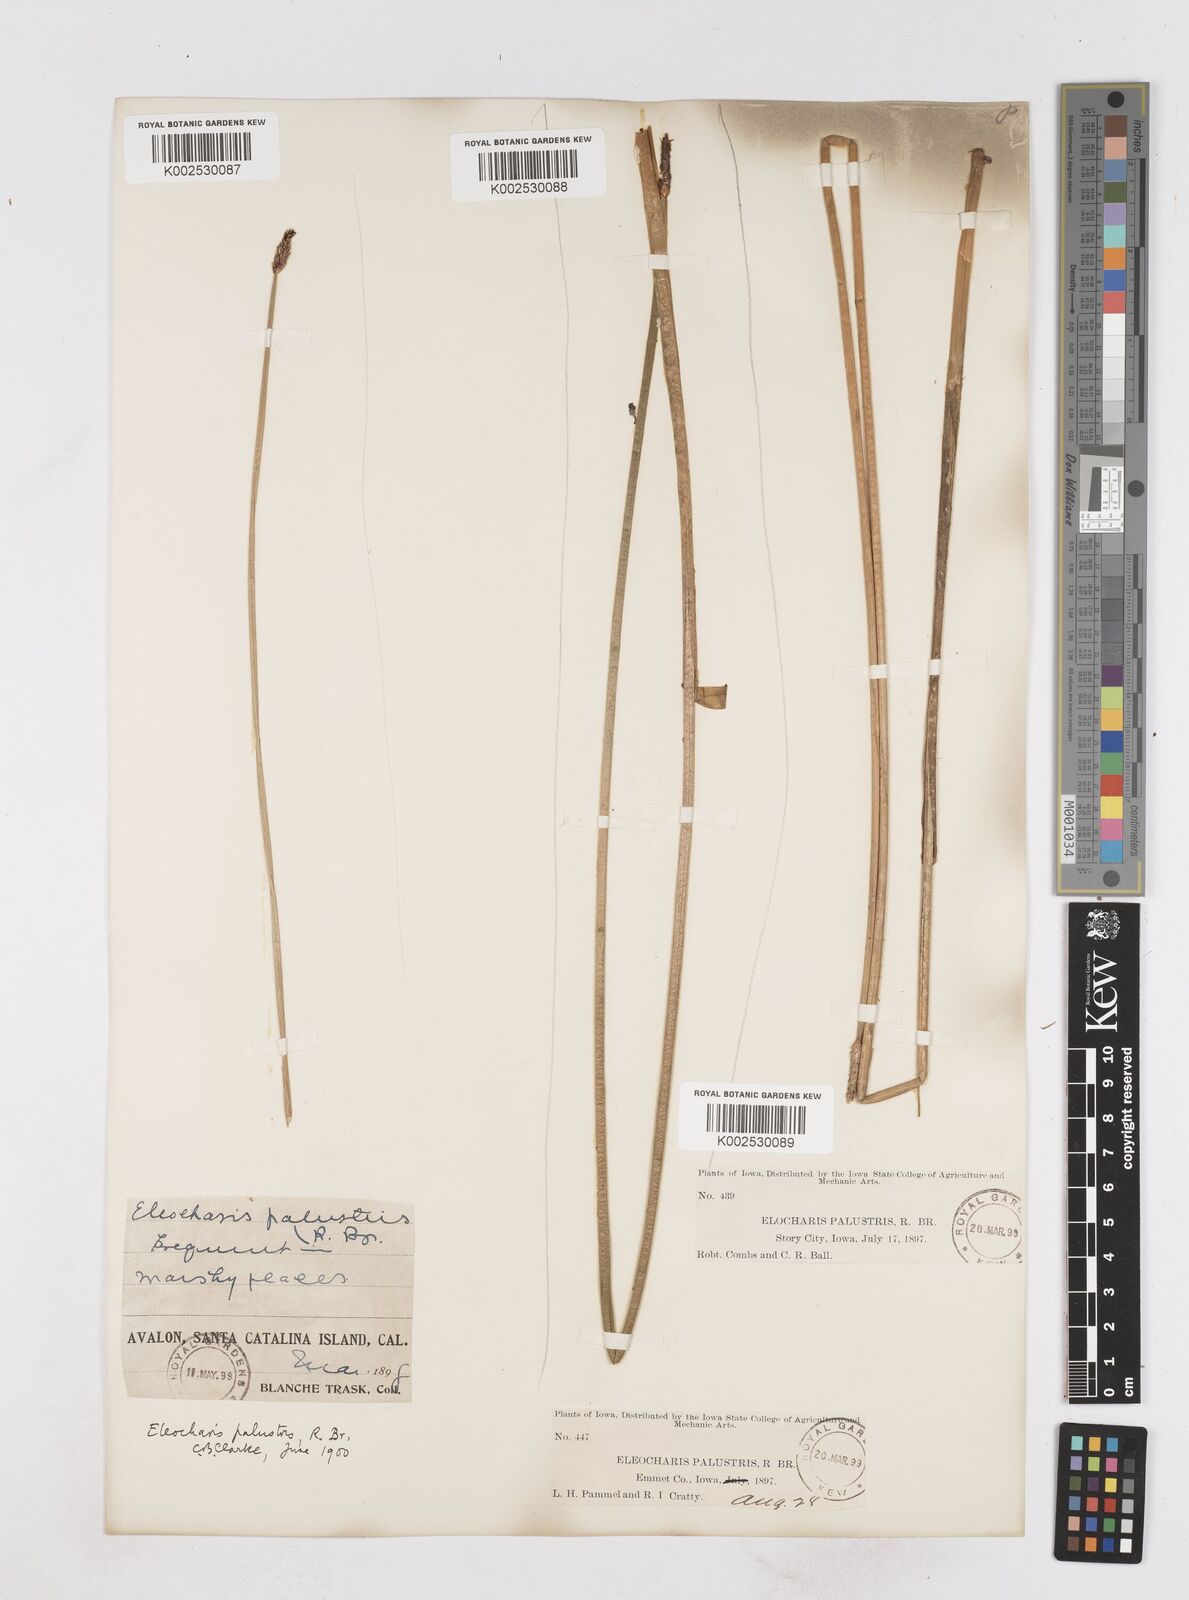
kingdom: Plantae
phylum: Tracheophyta
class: Liliopsida
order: Poales
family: Cyperaceae
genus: Eleocharis
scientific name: Eleocharis palustris
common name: Common spike-rush
